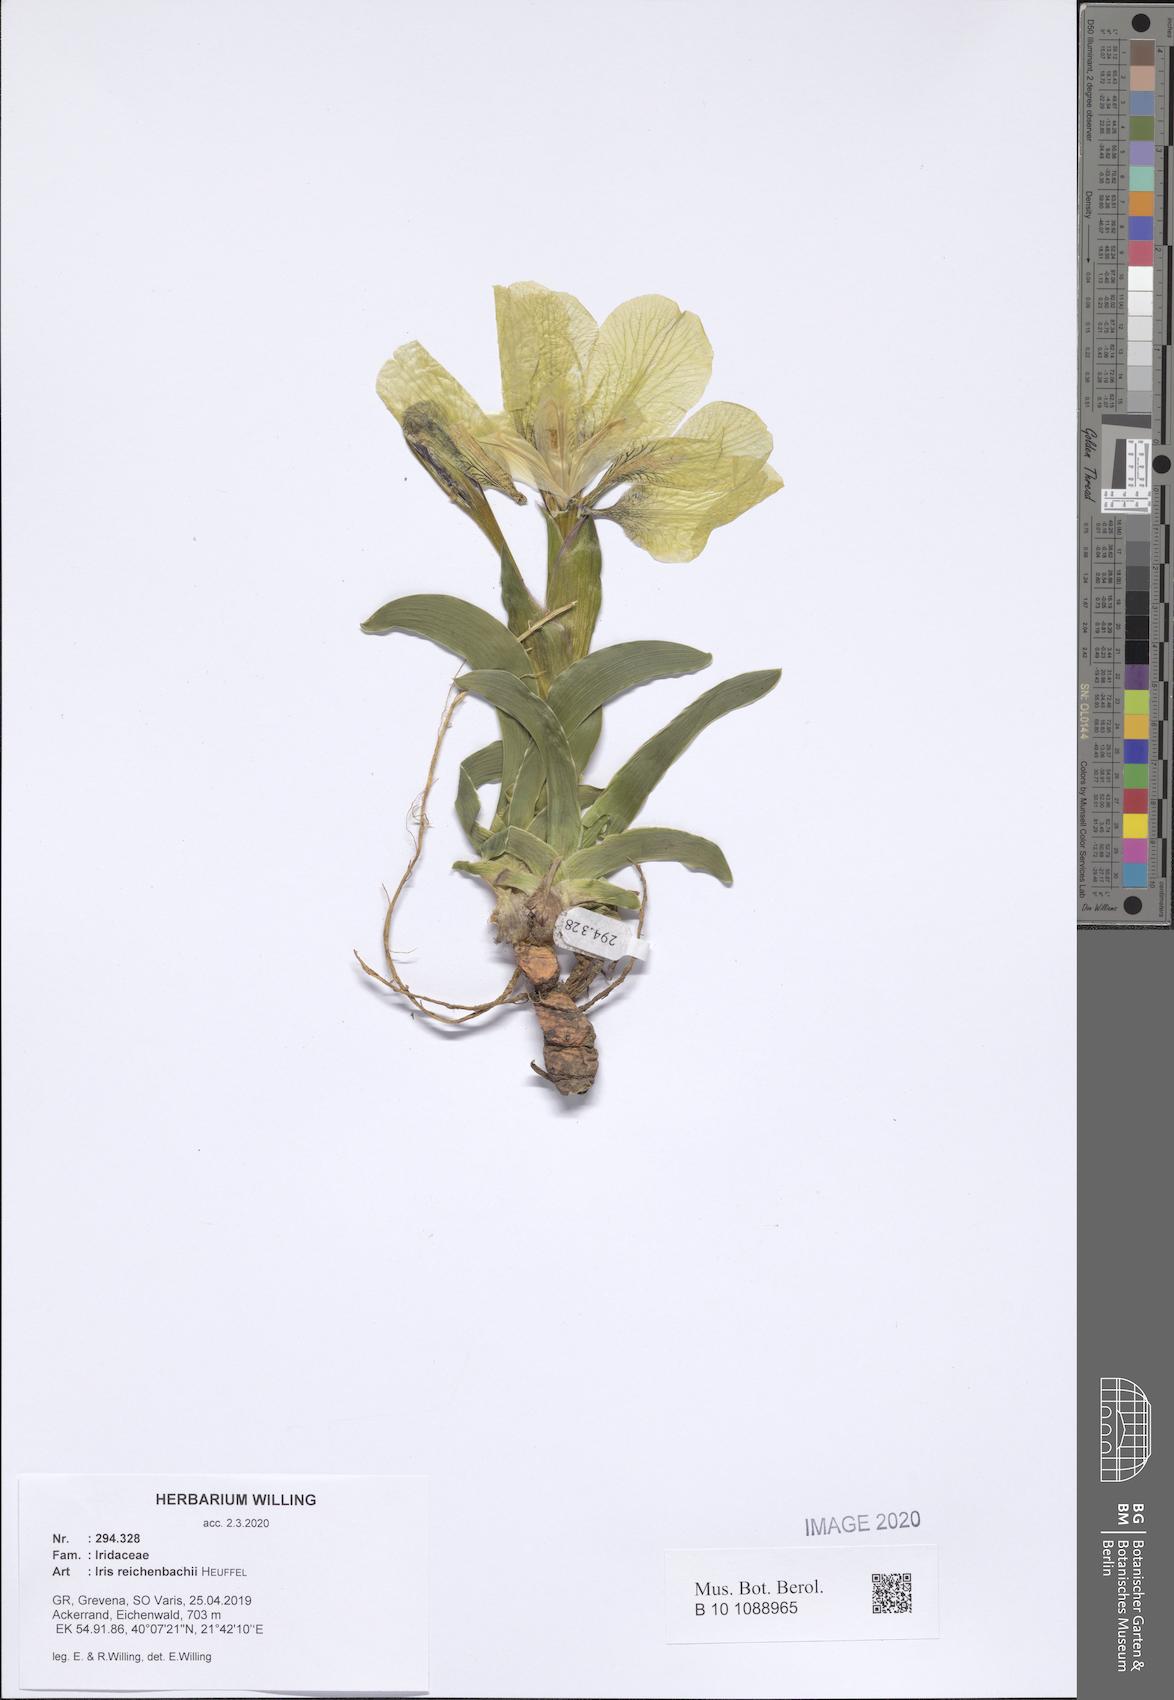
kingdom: Plantae
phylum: Tracheophyta
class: Liliopsida
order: Asparagales
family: Iridaceae
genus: Iris
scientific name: Iris reichenbachii
